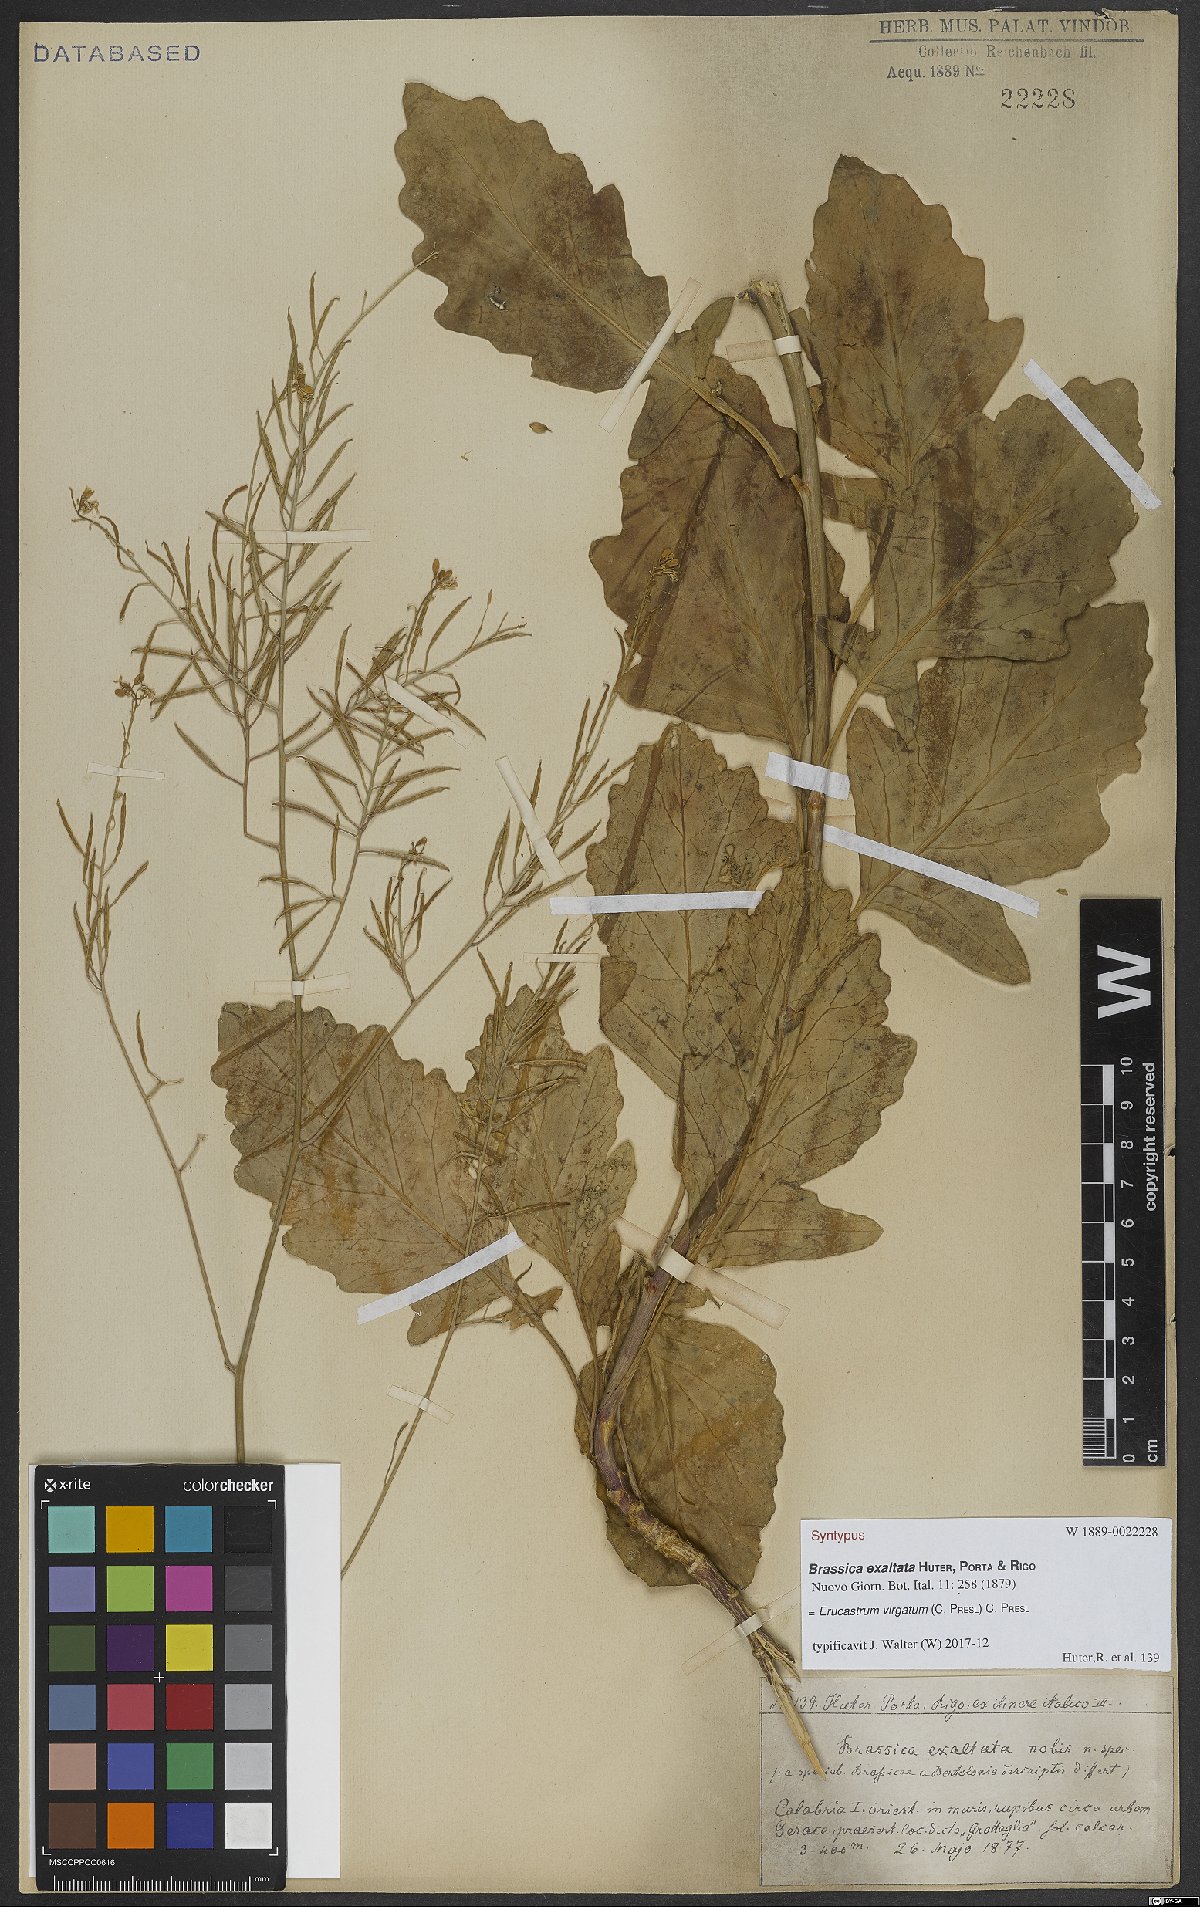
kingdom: Plantae
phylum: Tracheophyta
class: Magnoliopsida
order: Brassicales
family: Brassicaceae
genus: Erucastrum
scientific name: Erucastrum virgatum
